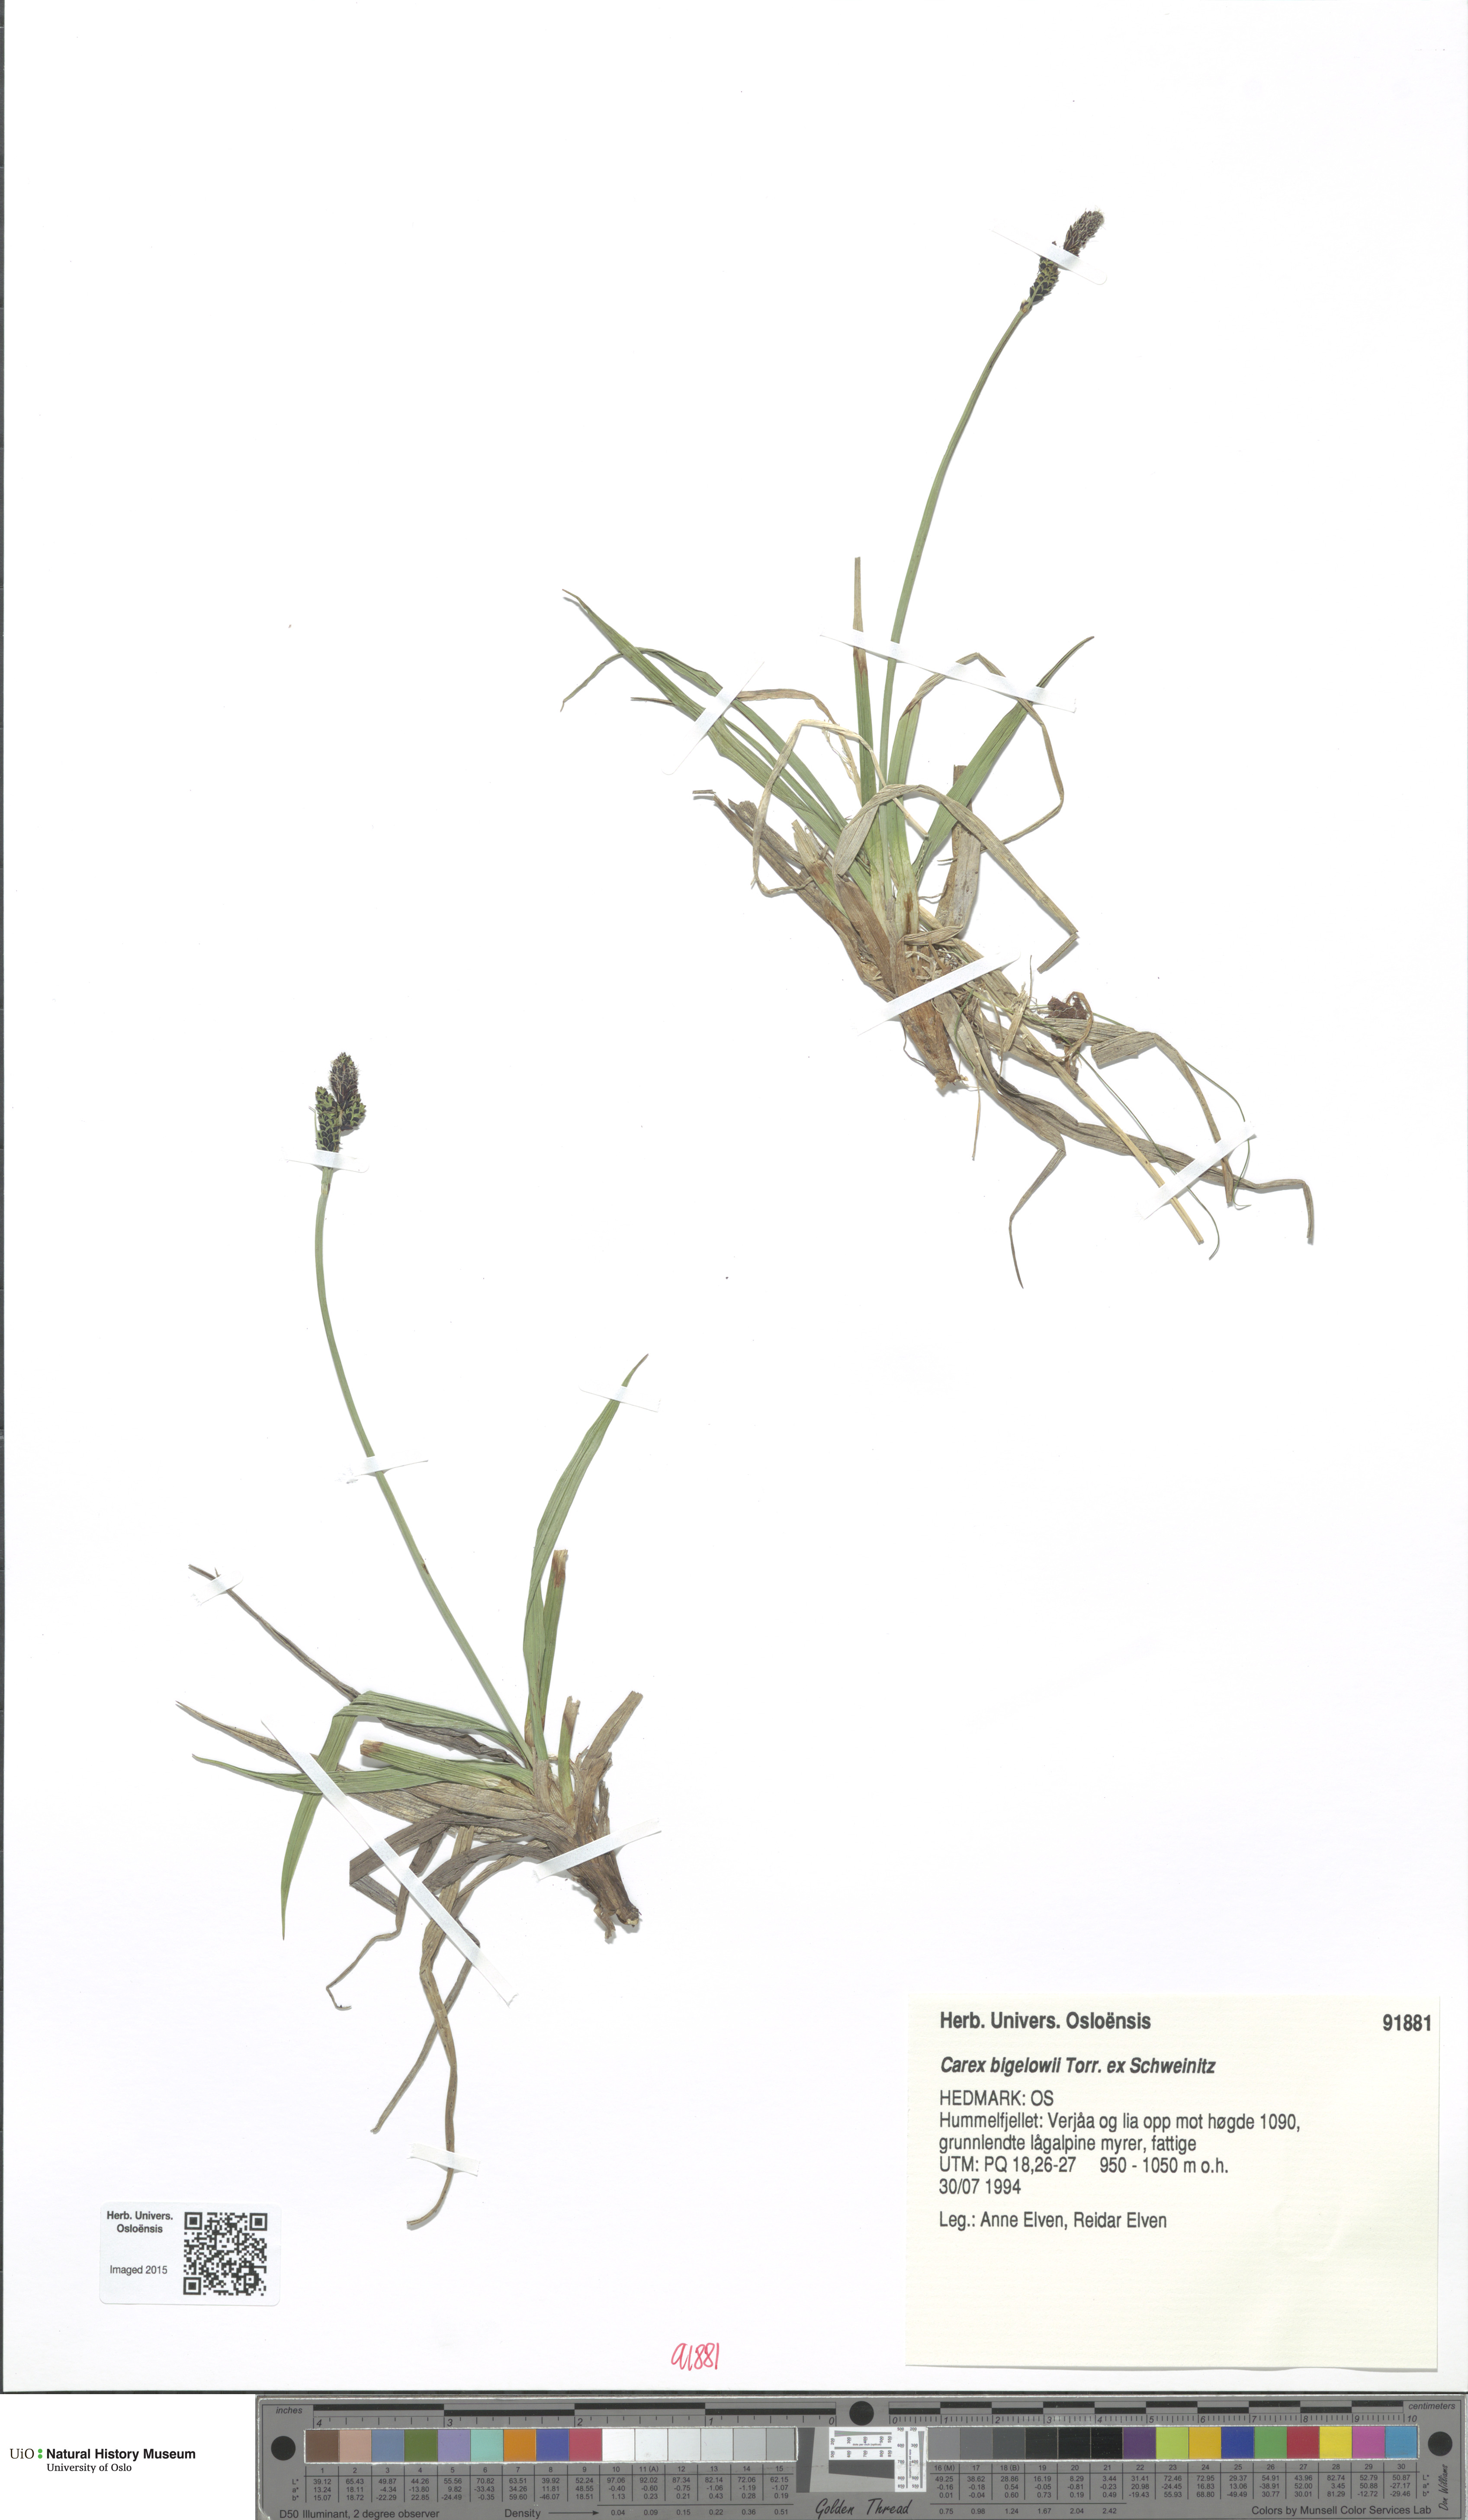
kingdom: Plantae
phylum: Tracheophyta
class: Liliopsida
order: Poales
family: Cyperaceae
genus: Carex
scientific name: Carex bigelowii
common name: Stiff sedge
